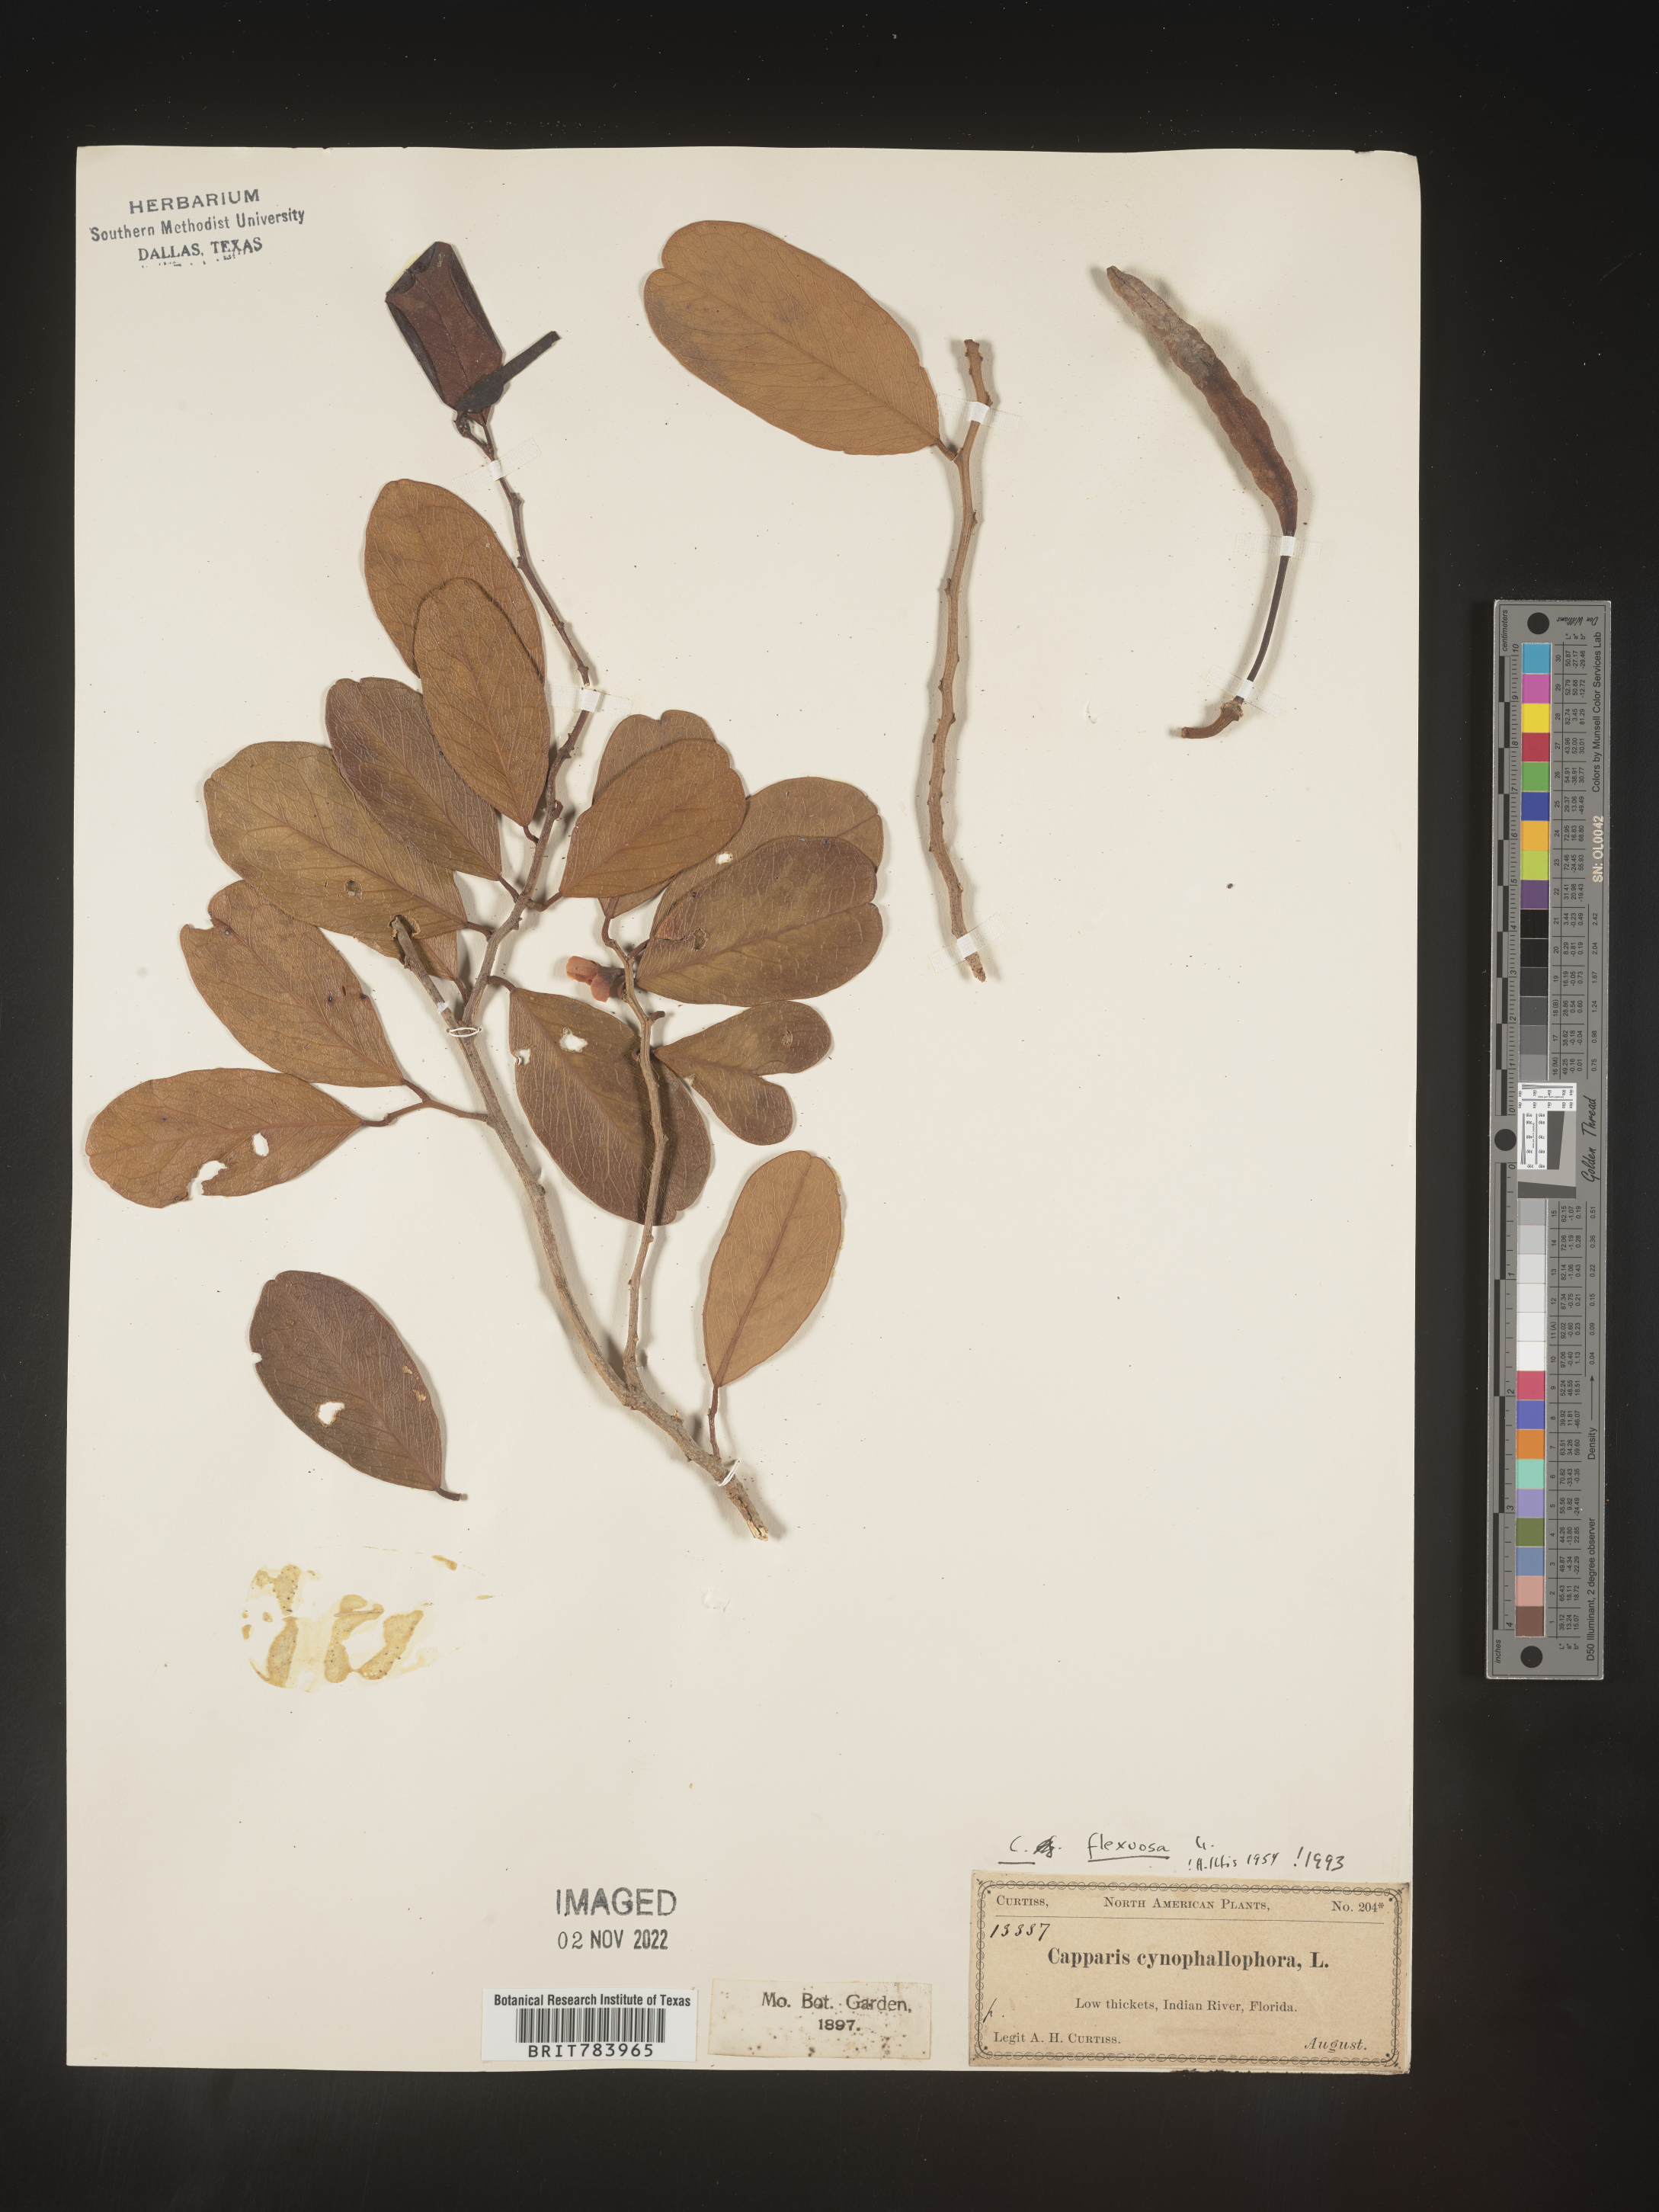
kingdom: Plantae
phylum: Tracheophyta
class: Magnoliopsida
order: Brassicales
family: Capparaceae
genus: Capparis
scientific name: Capparis
